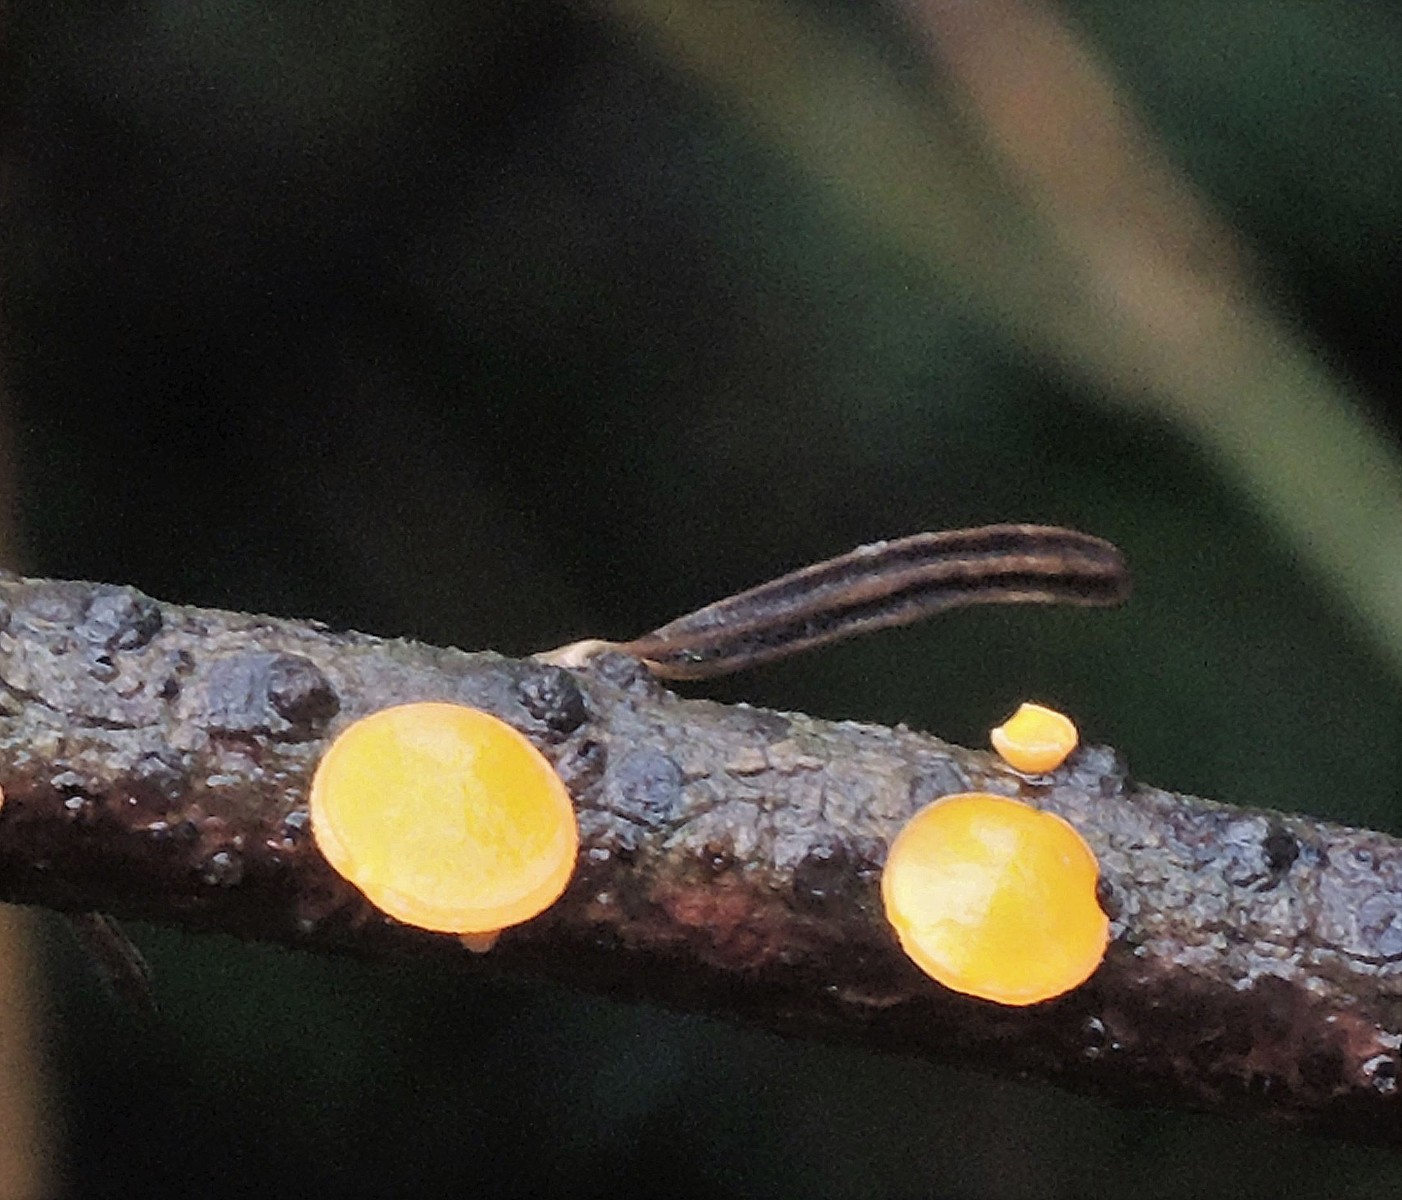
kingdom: Fungi
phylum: Ascomycota
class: Pezizomycetes
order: Pezizales
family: Sarcoscyphaceae
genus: Pithya
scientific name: Pithya vulgaris
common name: stor dukatbæger
